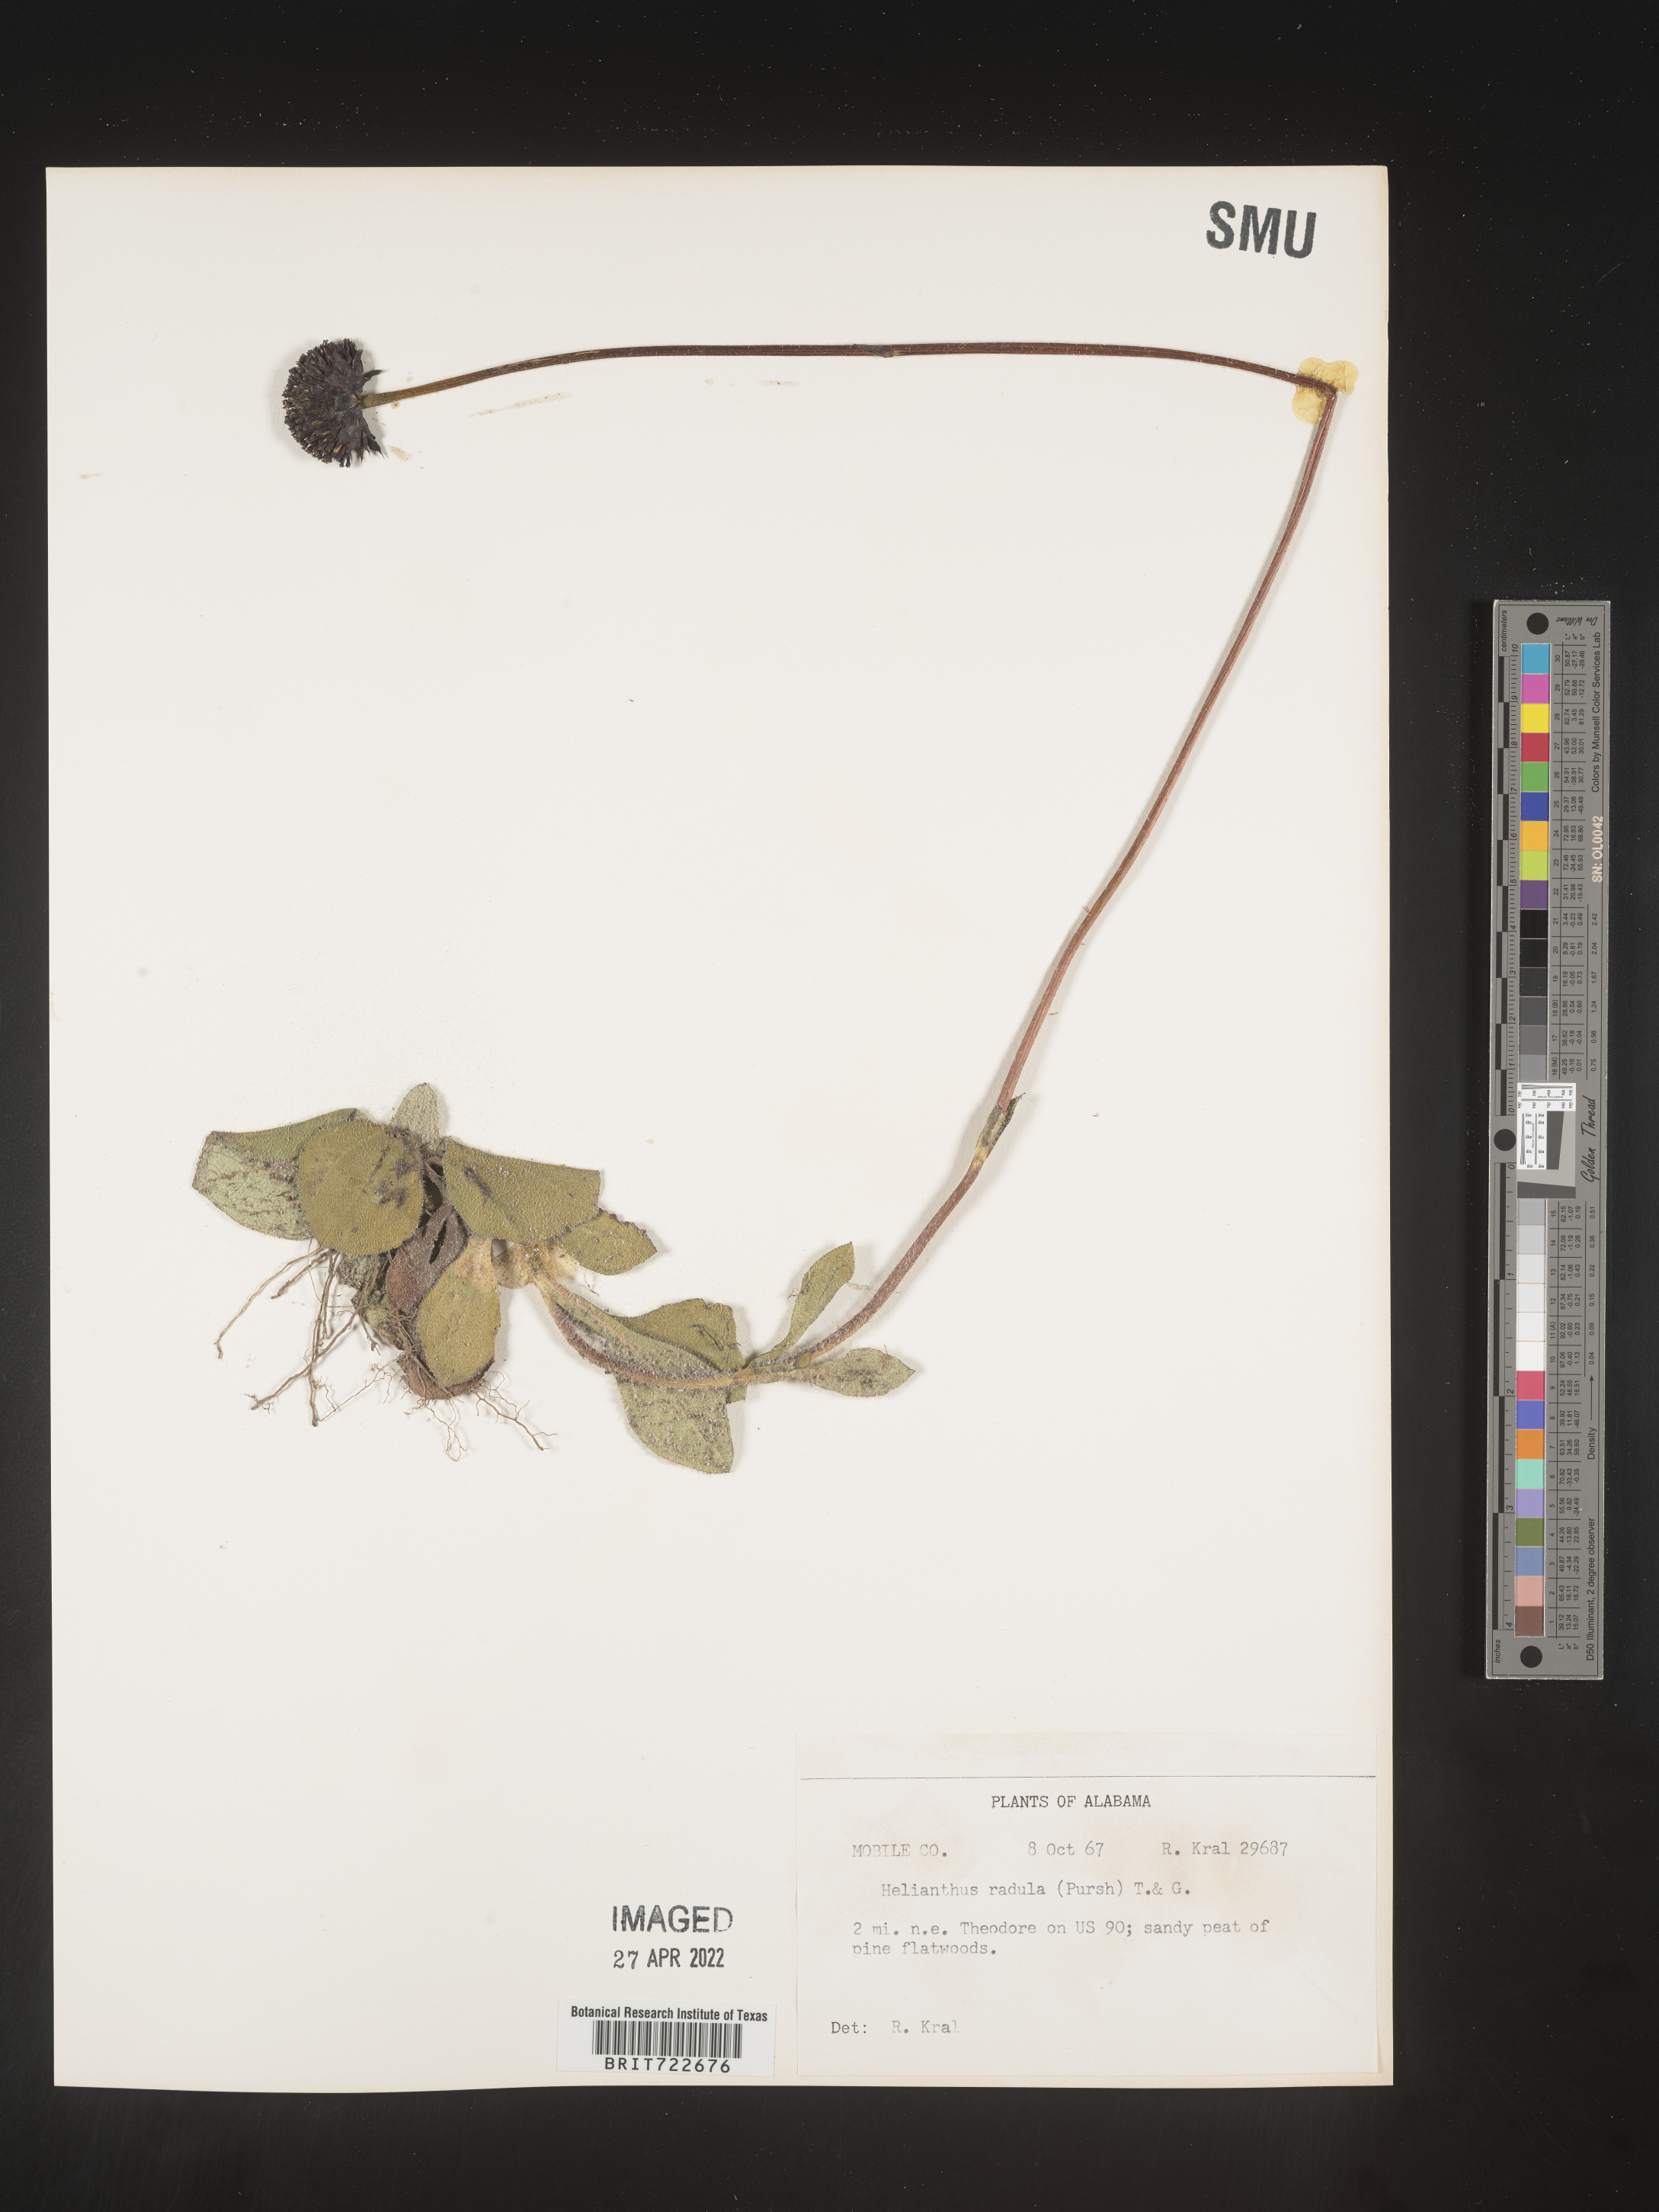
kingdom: Plantae
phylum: Tracheophyta
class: Magnoliopsida
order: Asterales
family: Asteraceae
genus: Helianthus
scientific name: Helianthus radula
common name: Pineland sunflower
